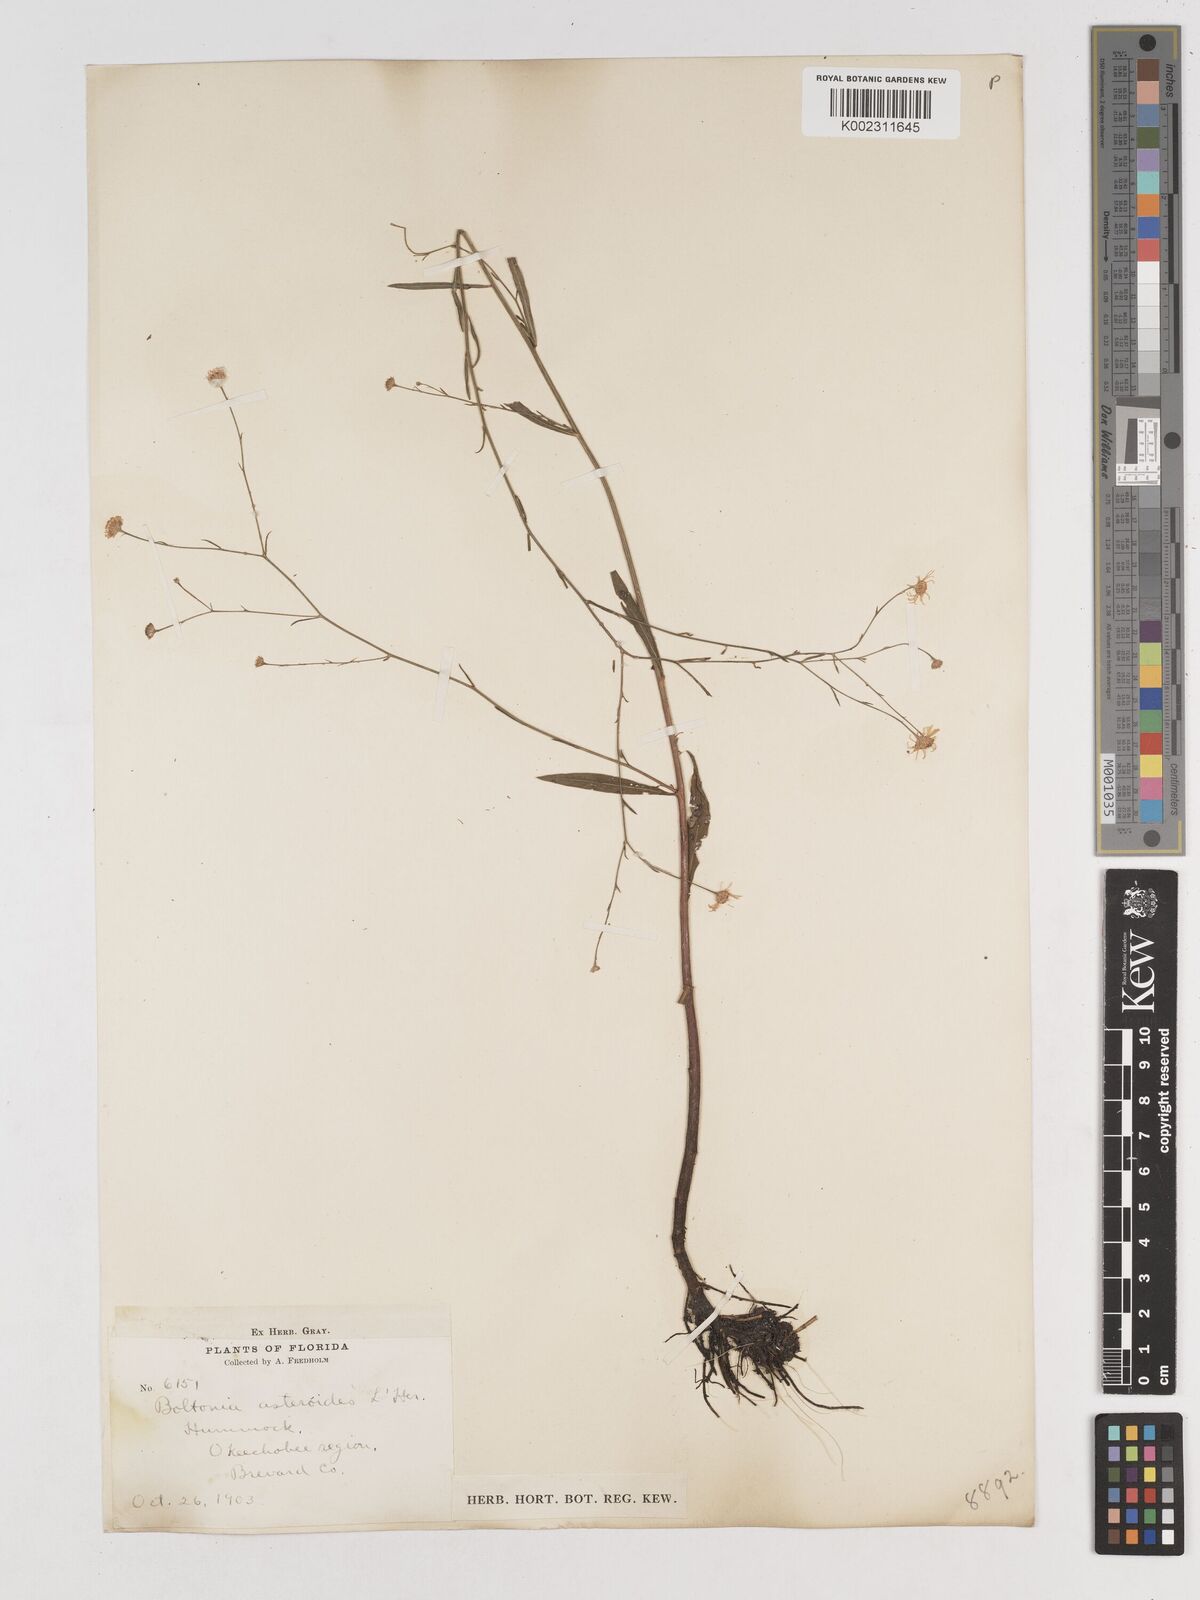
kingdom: Plantae
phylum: Tracheophyta
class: Magnoliopsida
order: Asterales
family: Asteraceae
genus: Boltonia
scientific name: Boltonia diffusa
